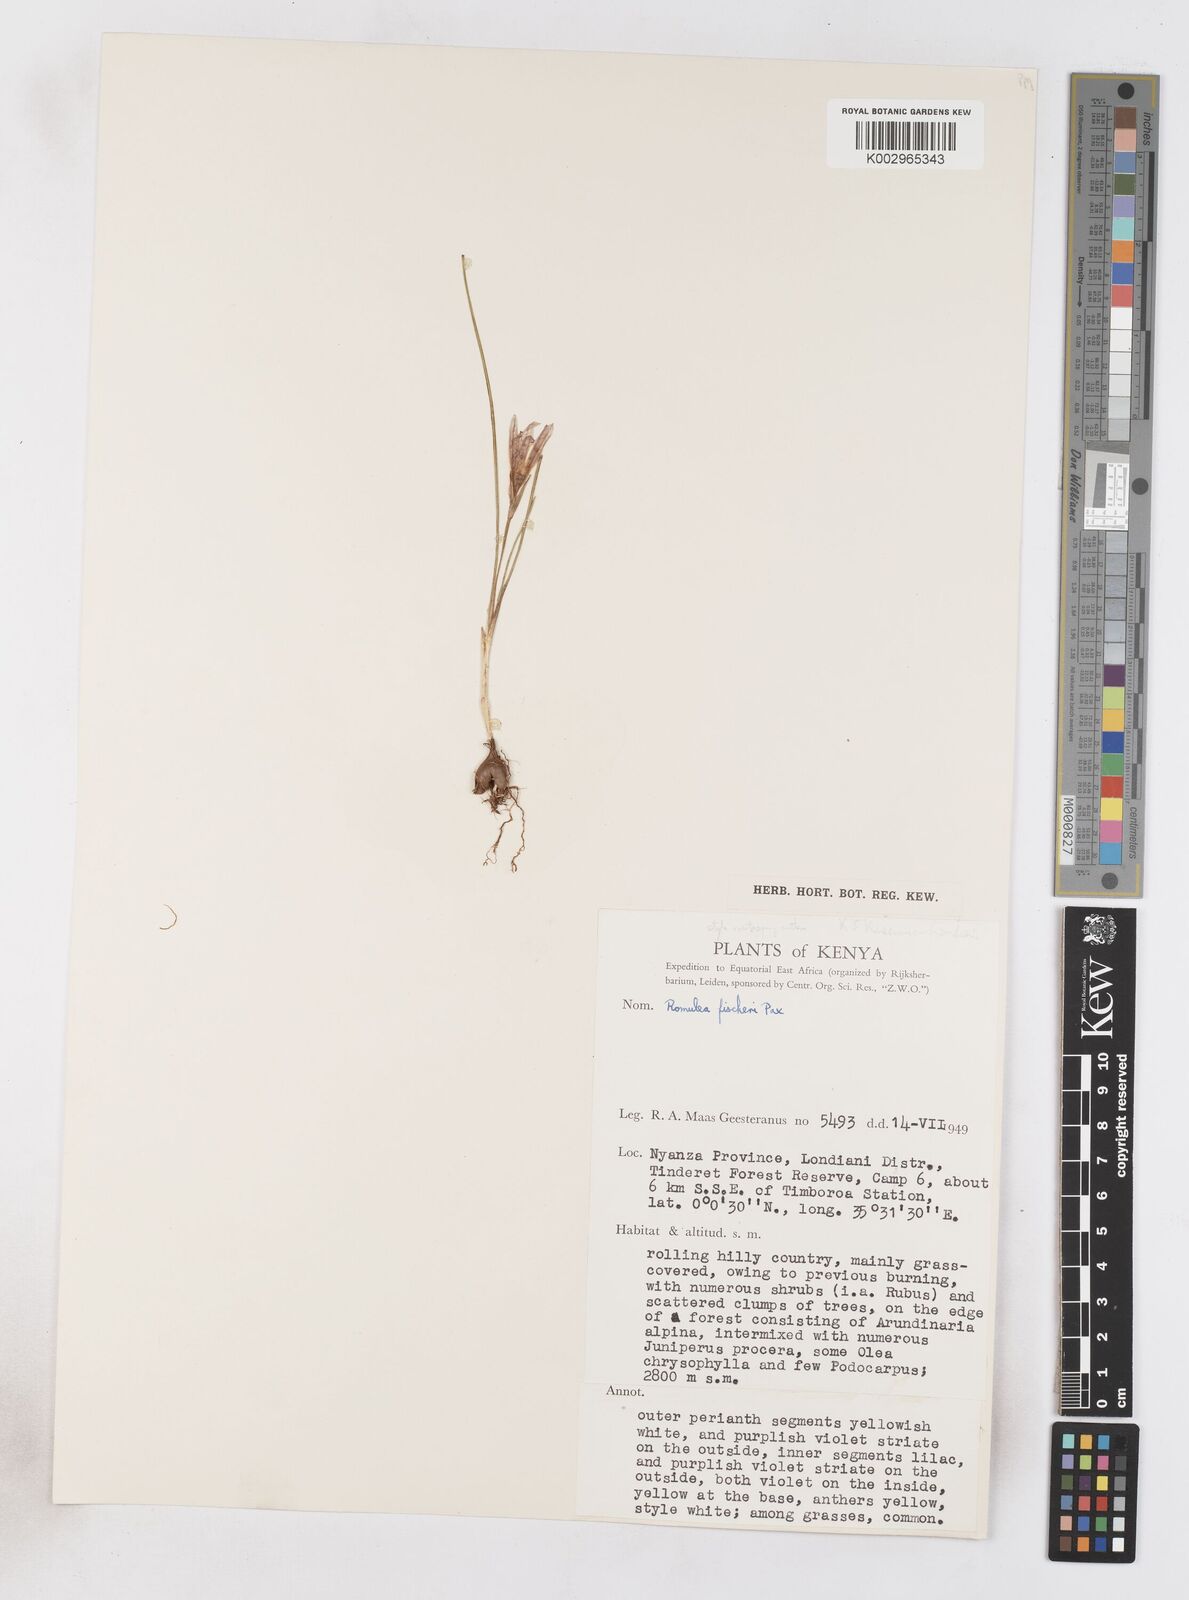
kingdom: Plantae
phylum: Tracheophyta
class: Liliopsida
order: Asparagales
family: Iridaceae
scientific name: Iridaceae
